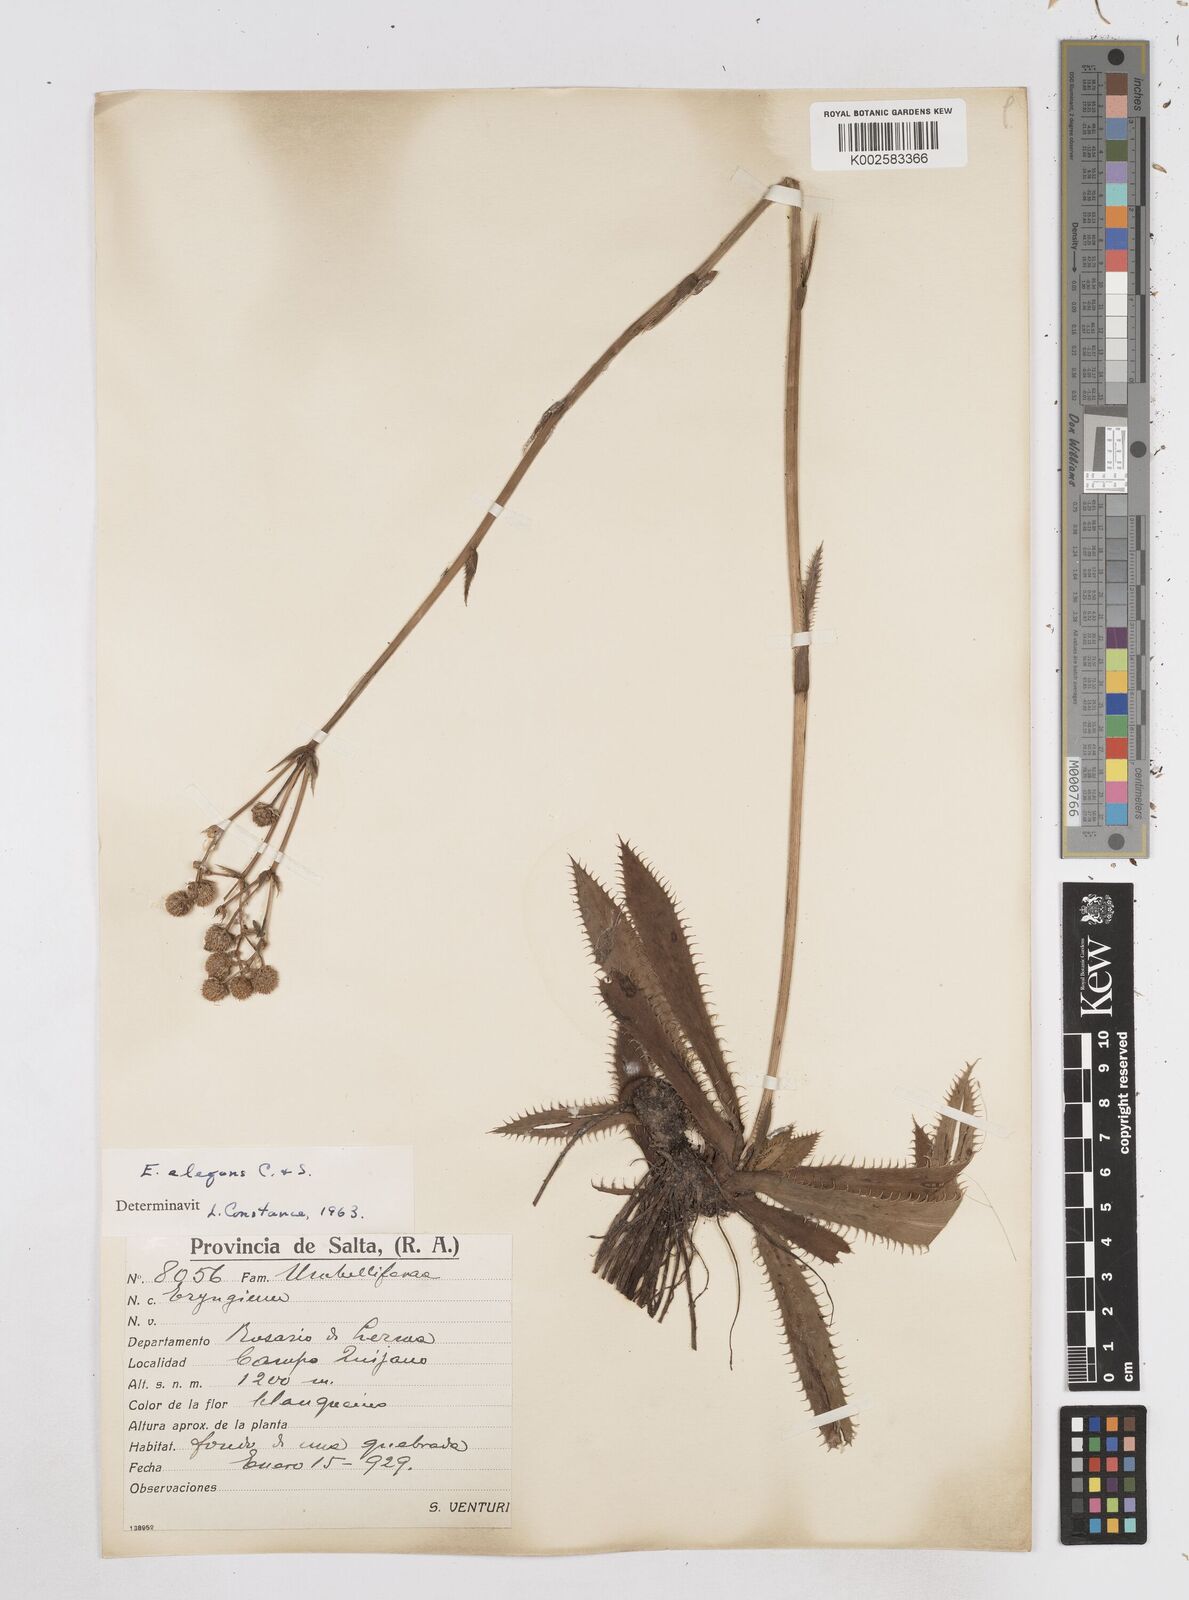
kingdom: Plantae
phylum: Tracheophyta
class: Magnoliopsida
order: Apiales
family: Apiaceae
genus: Eryngium
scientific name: Eryngium elegans
